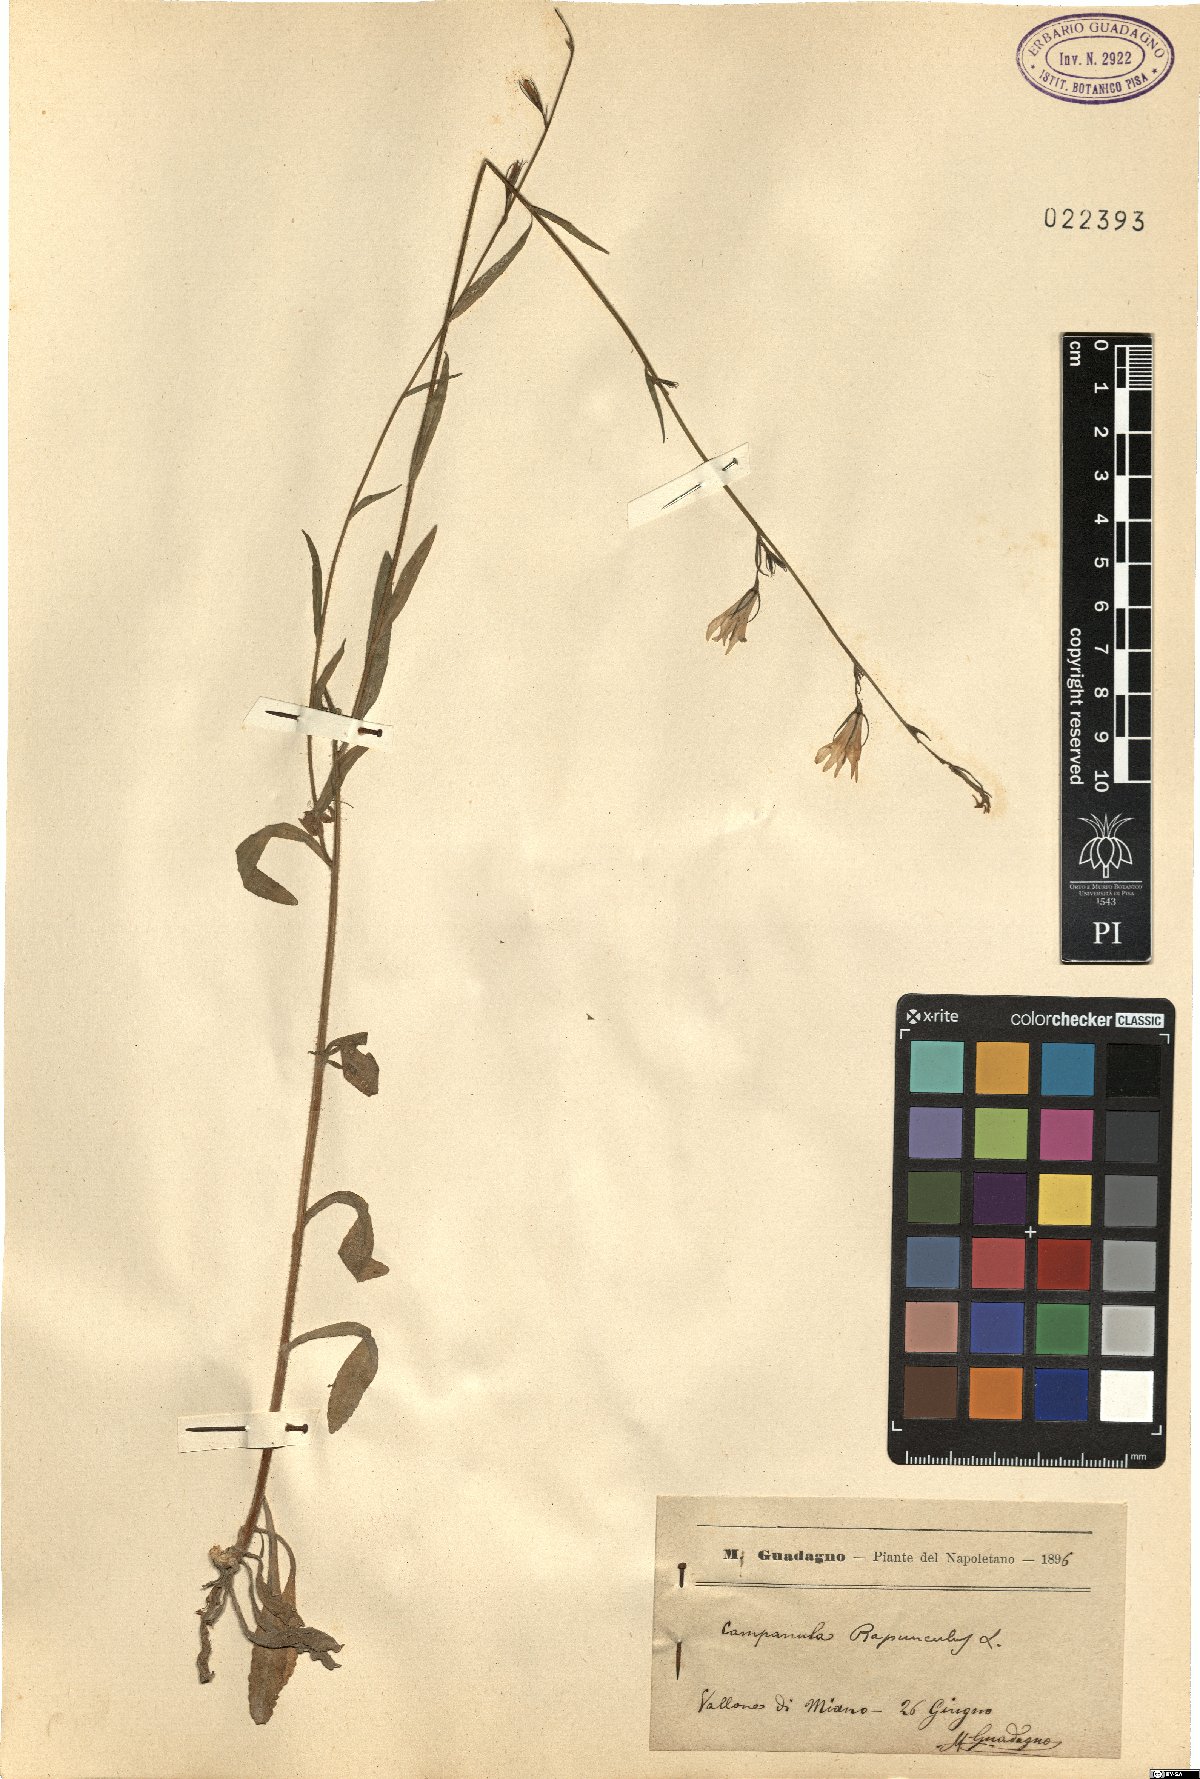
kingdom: Plantae
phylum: Tracheophyta
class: Magnoliopsida
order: Asterales
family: Campanulaceae
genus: Campanula
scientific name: Campanula rapunculus
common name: Rampion bellflower
